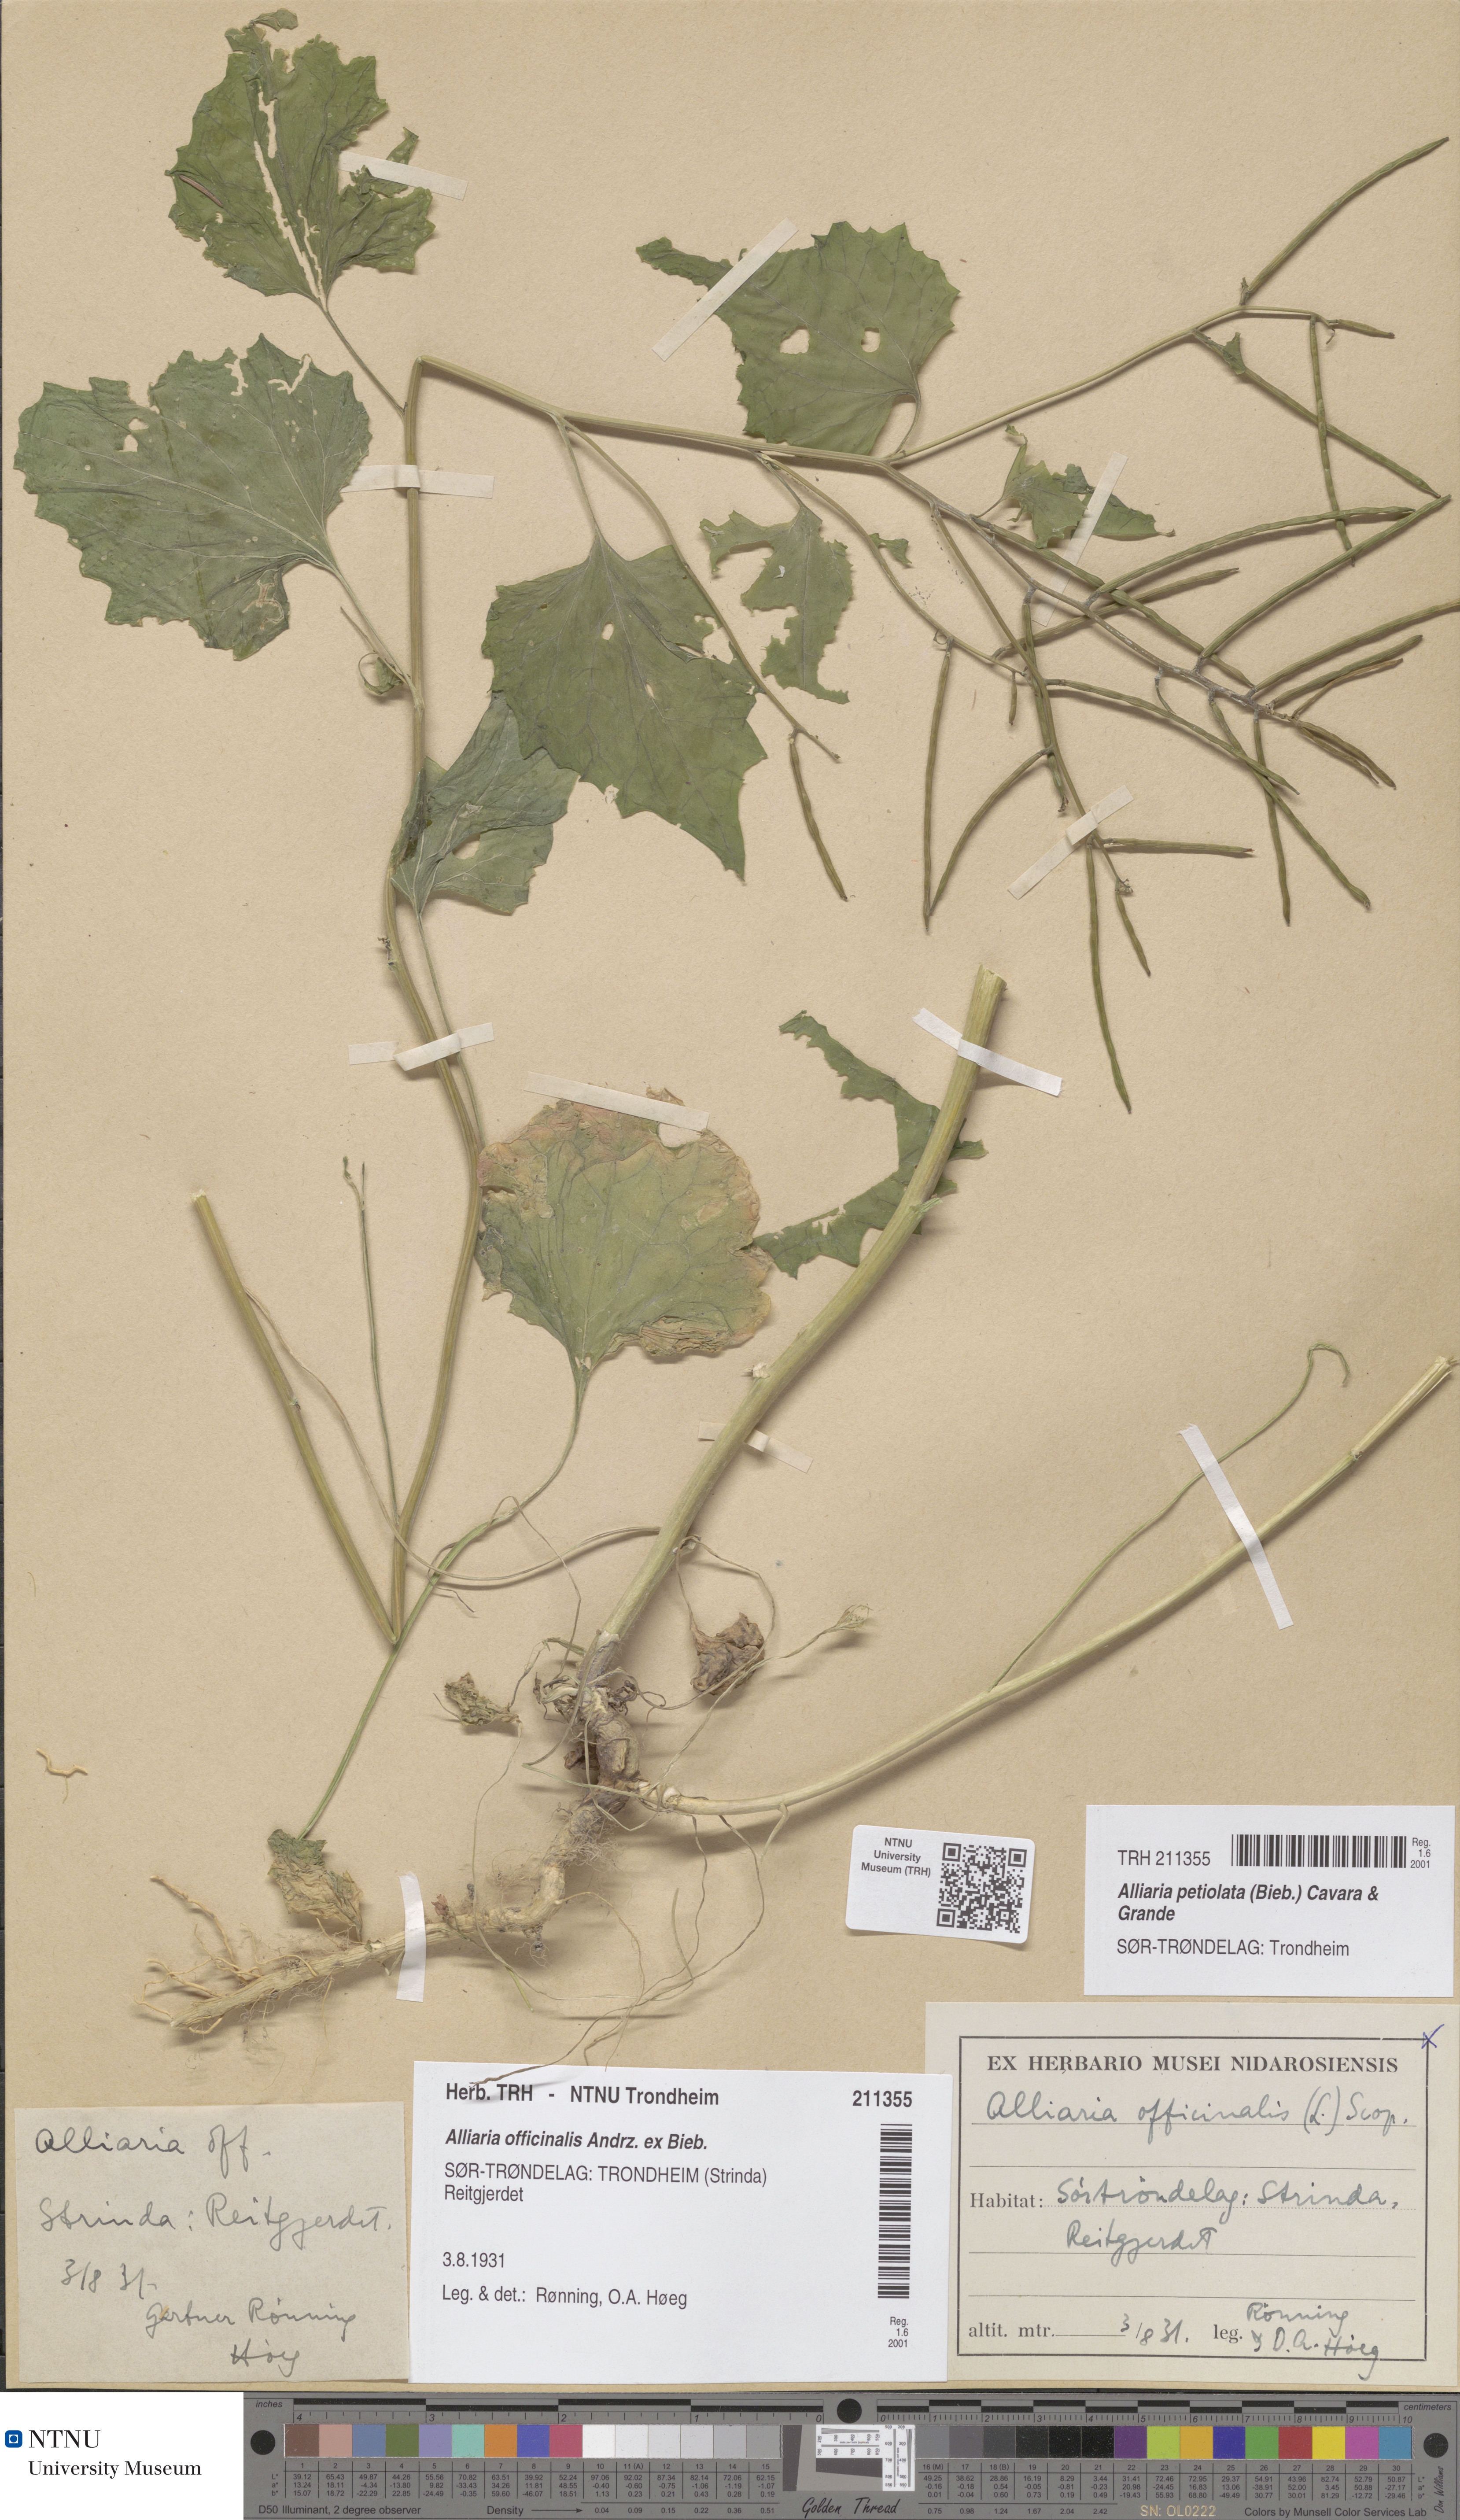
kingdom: Plantae
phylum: Tracheophyta
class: Magnoliopsida
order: Brassicales
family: Brassicaceae
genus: Alliaria
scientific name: Alliaria petiolata
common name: Garlic mustard
